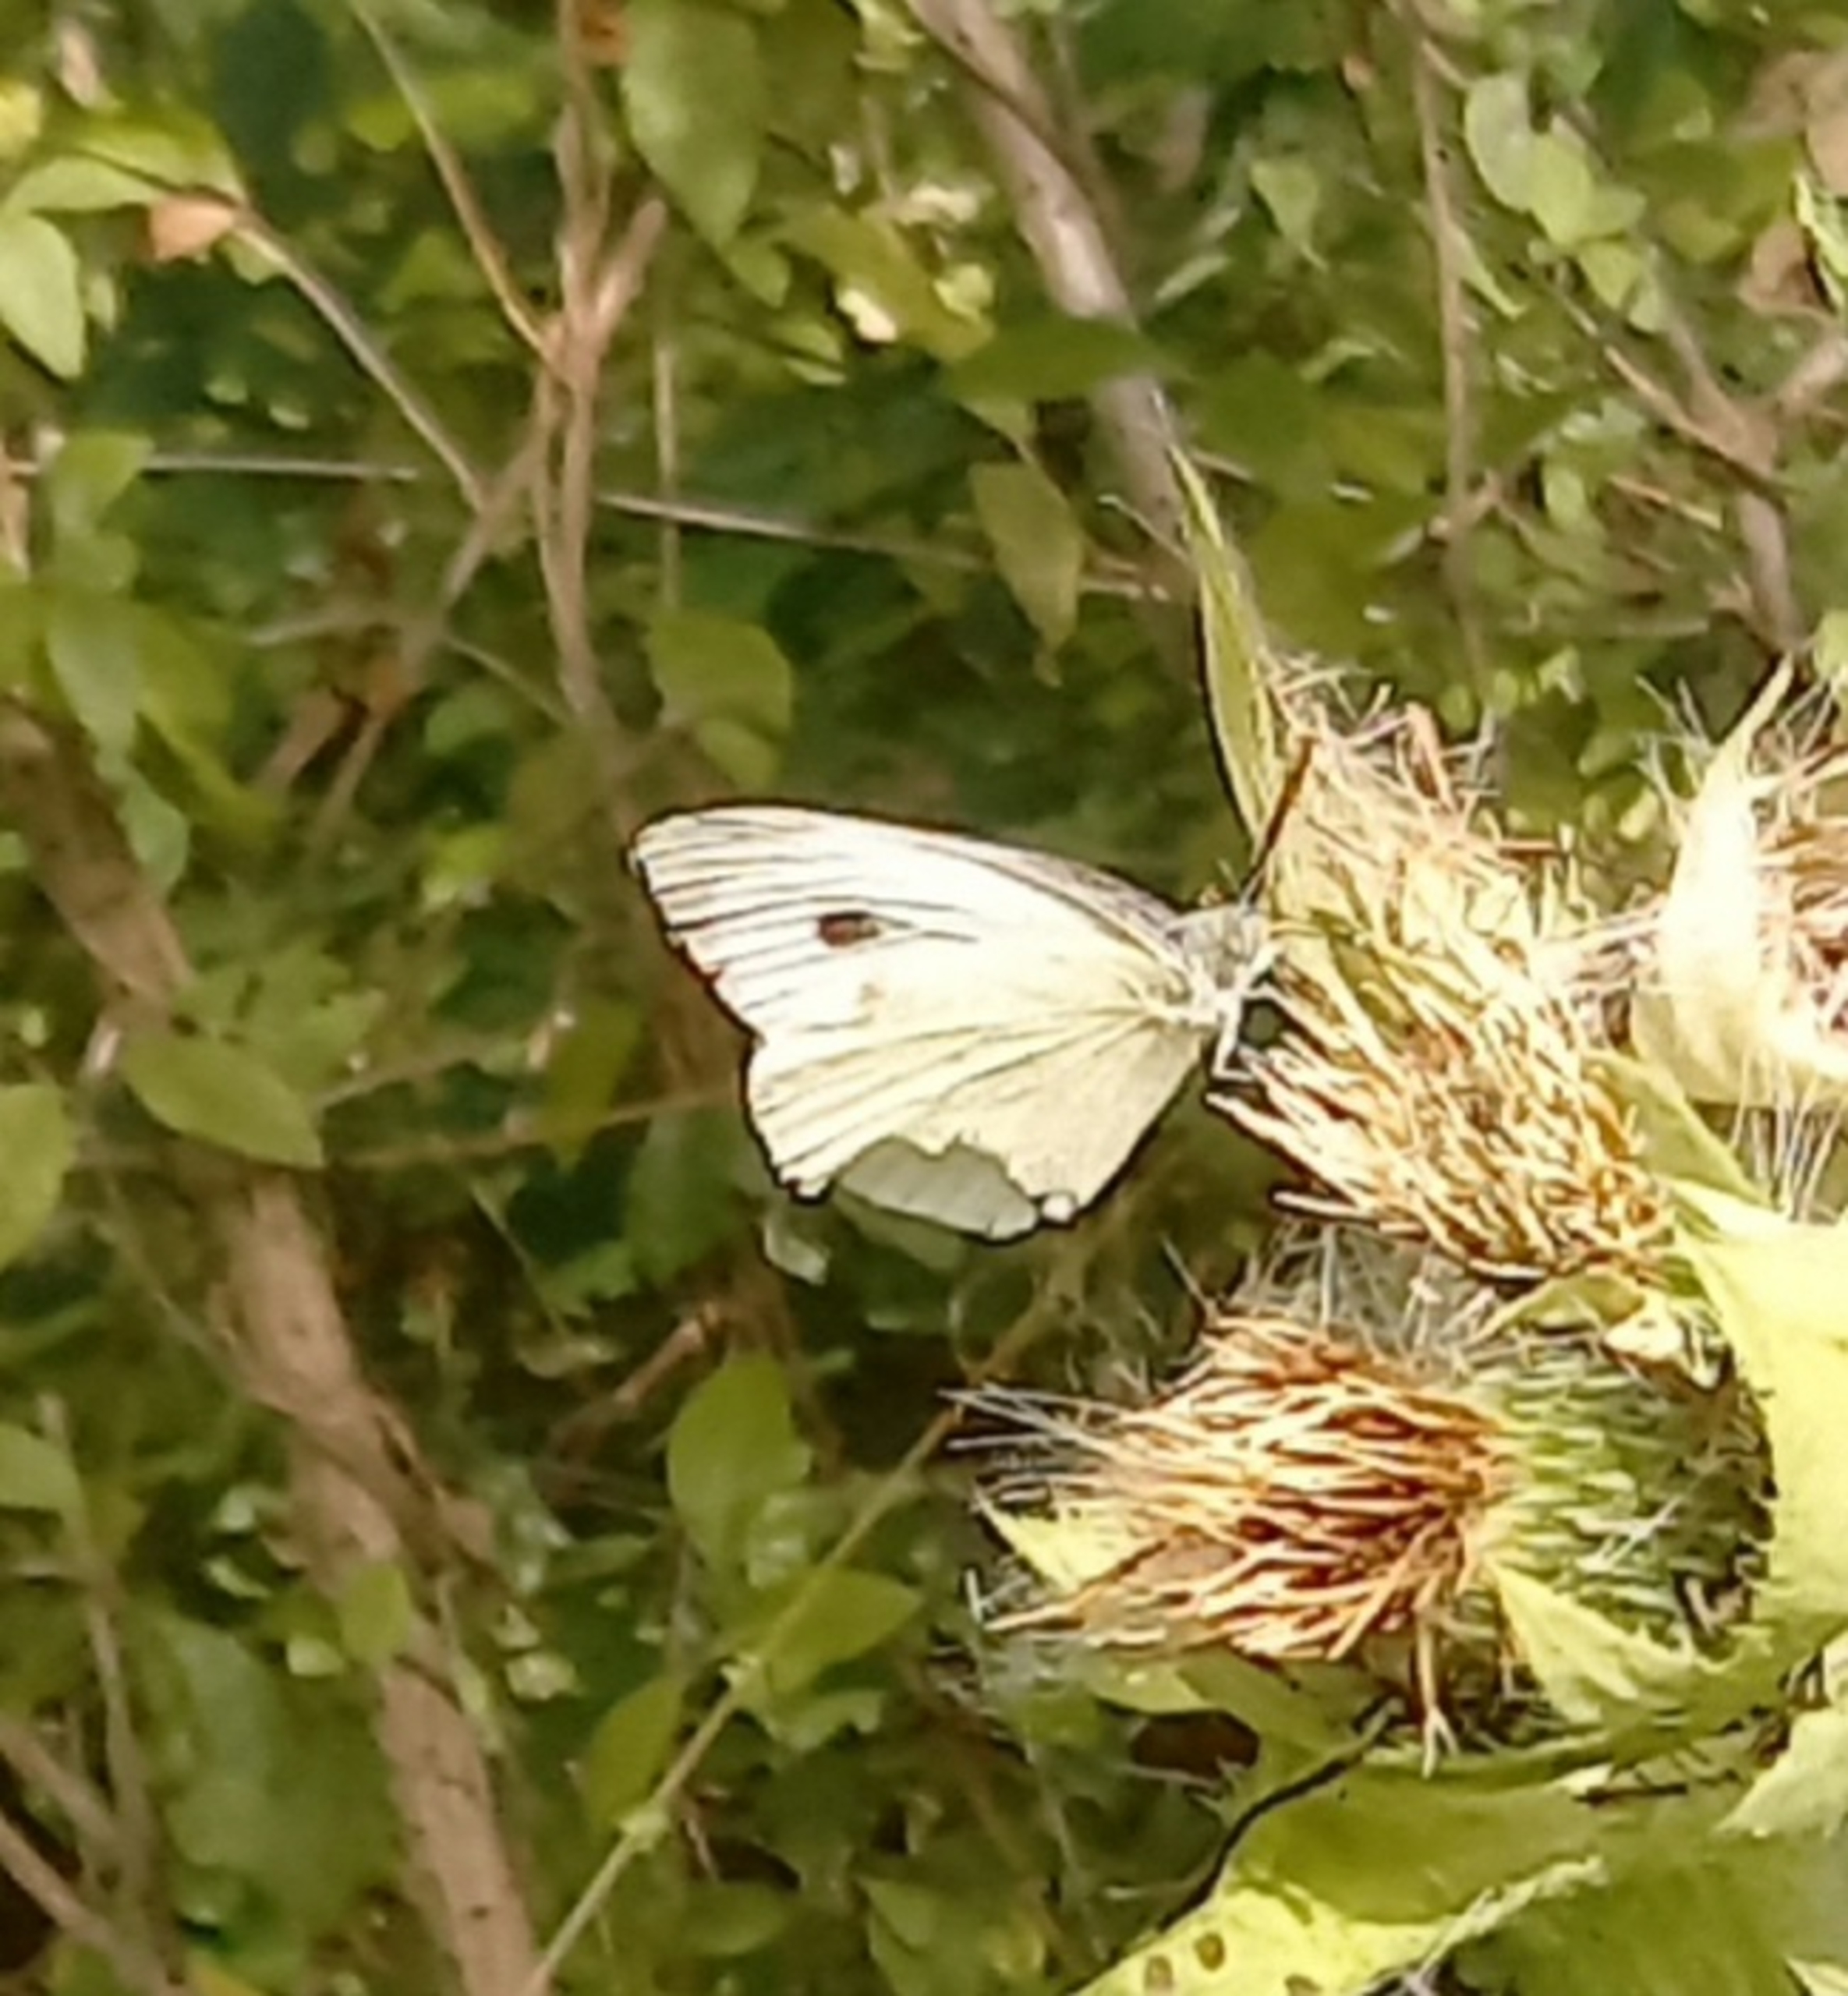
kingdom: Animalia
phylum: Arthropoda
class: Insecta
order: Lepidoptera
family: Pieridae
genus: Pieris
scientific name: Pieris brassicae
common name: Stor kålsommerfugl
